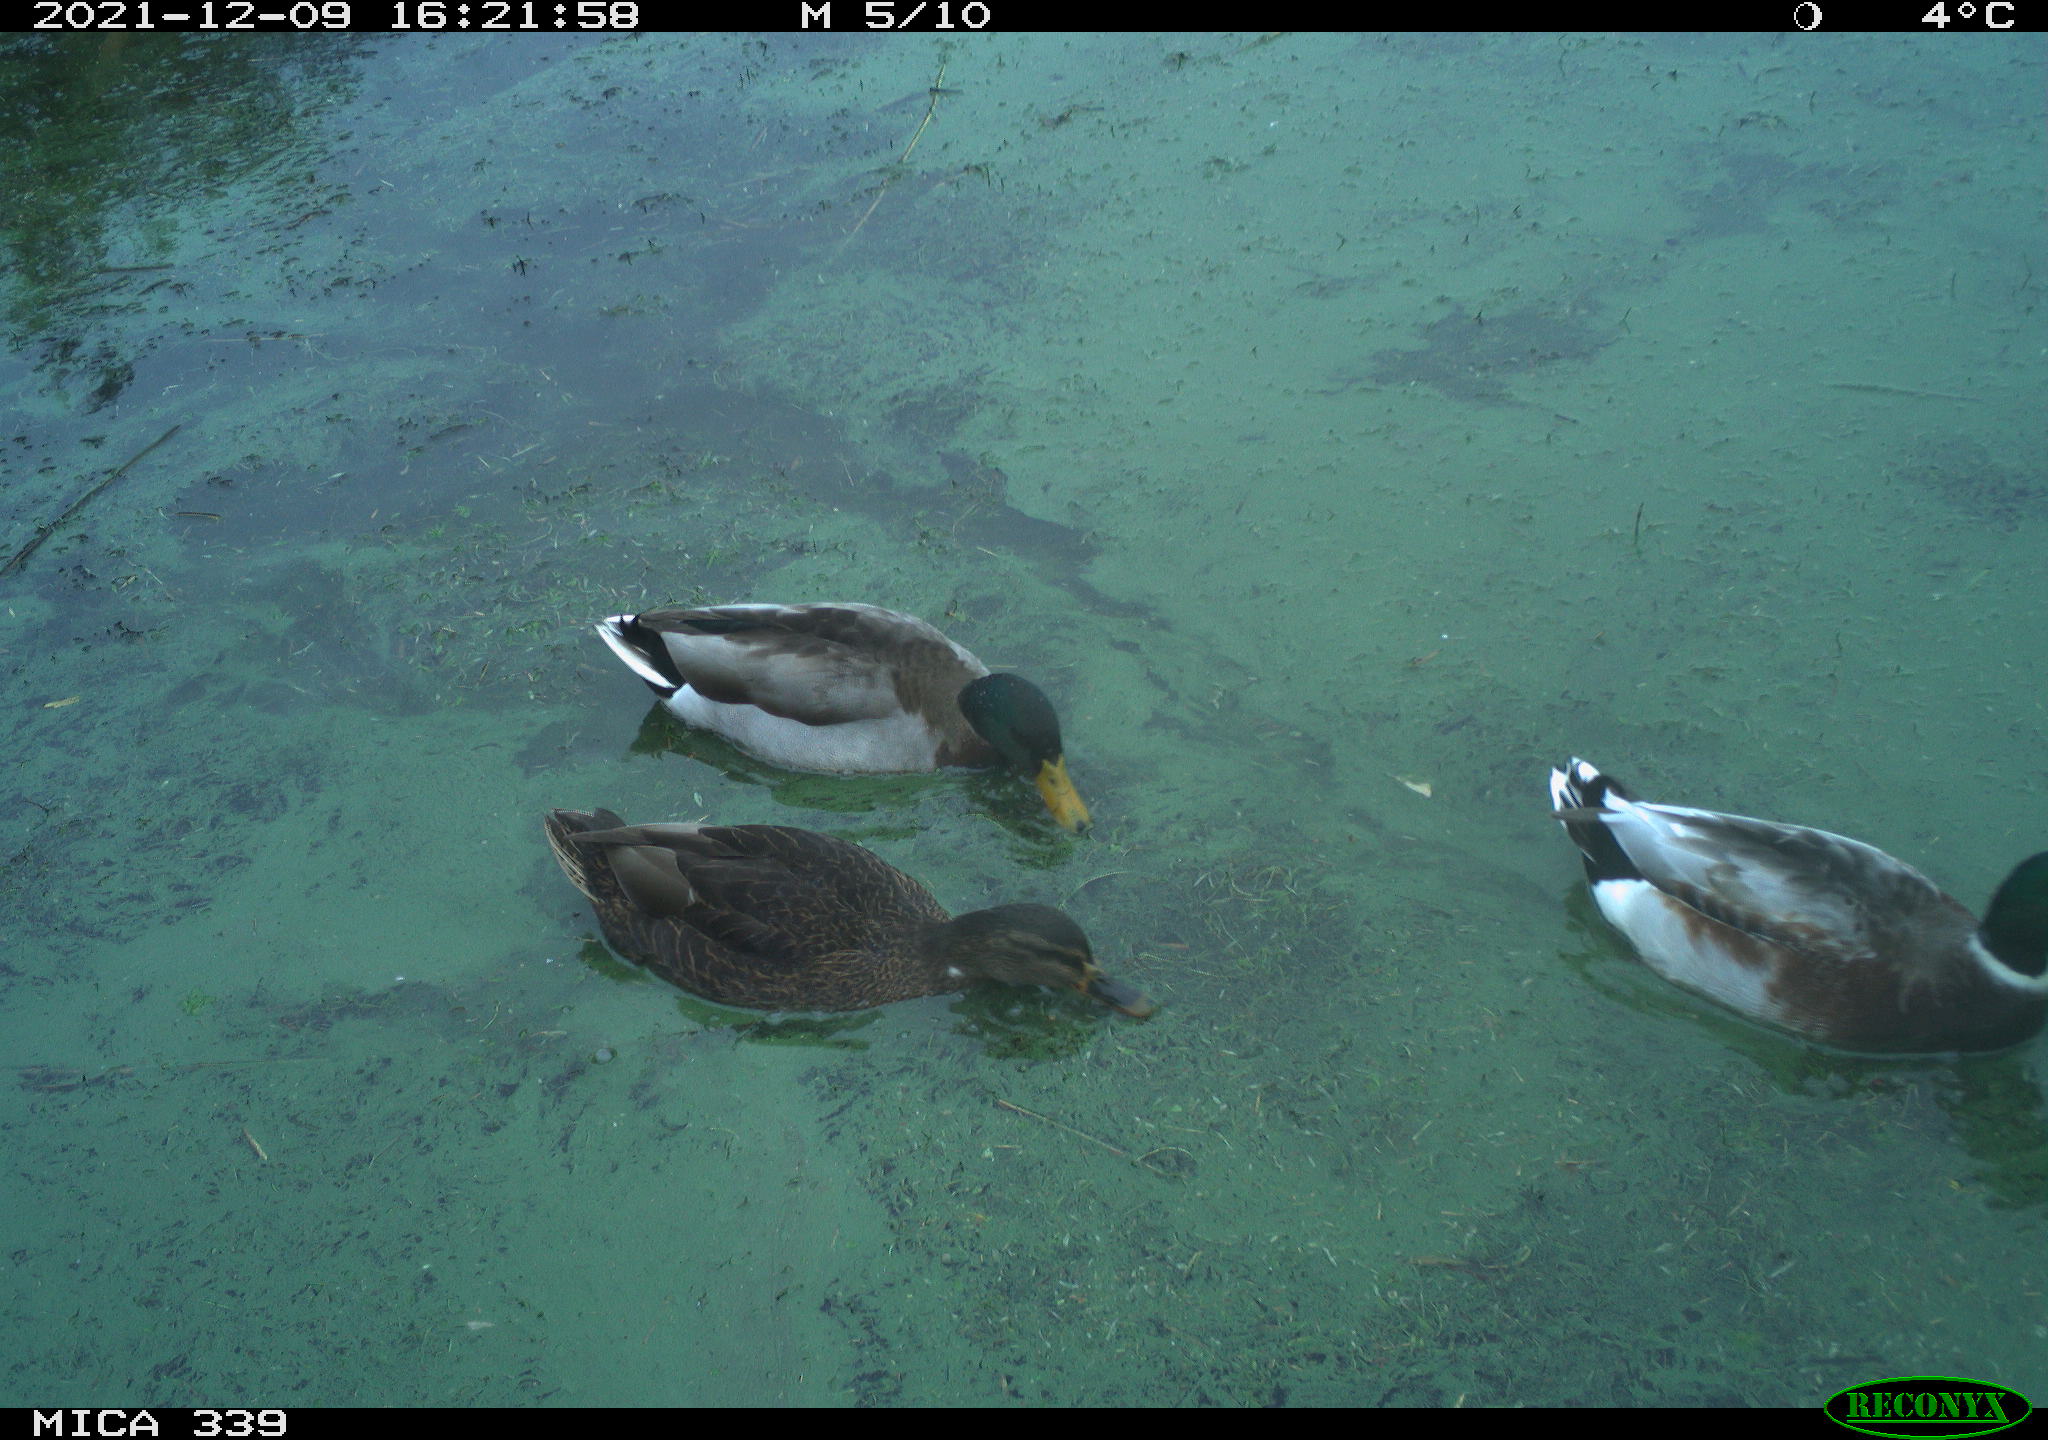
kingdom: Animalia
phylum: Chordata
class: Aves
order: Anseriformes
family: Anatidae
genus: Anas
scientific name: Anas platyrhynchos
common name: Mallard
